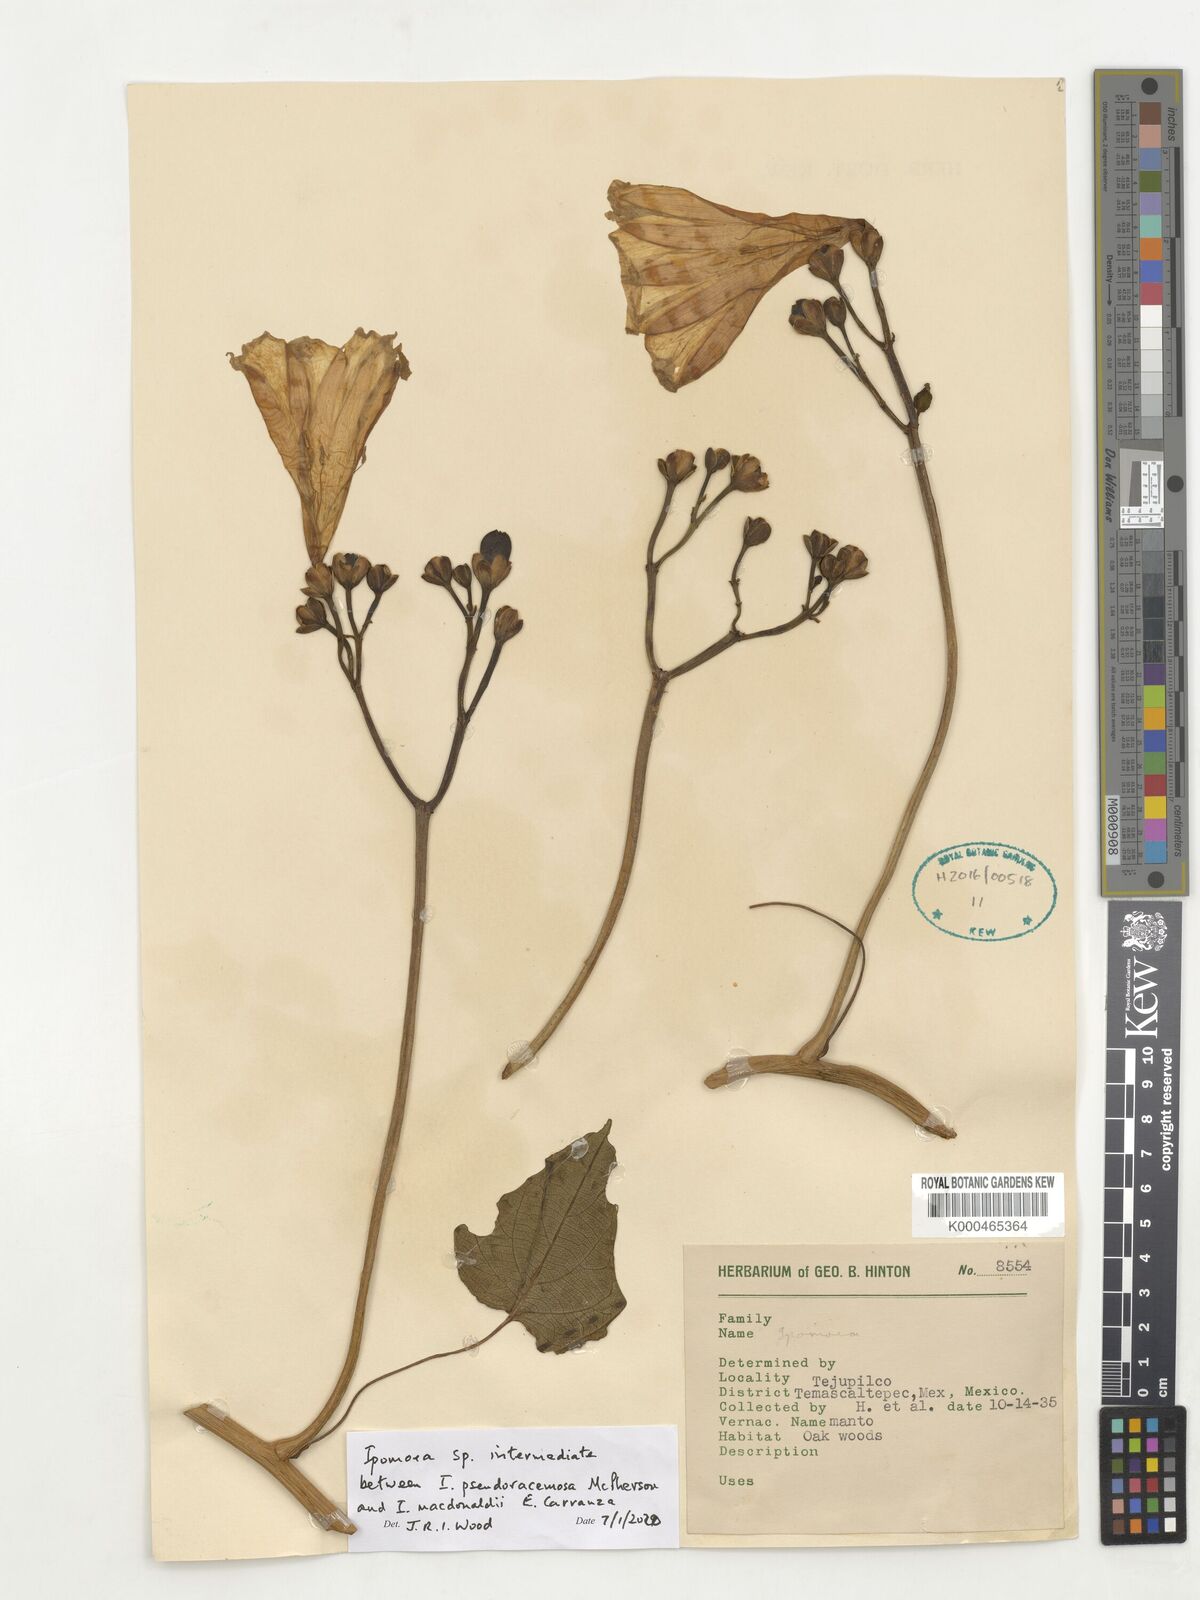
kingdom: Plantae
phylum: Tracheophyta
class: Magnoliopsida
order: Solanales
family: Convolvulaceae
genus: Ipomoea
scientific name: Ipomoea
